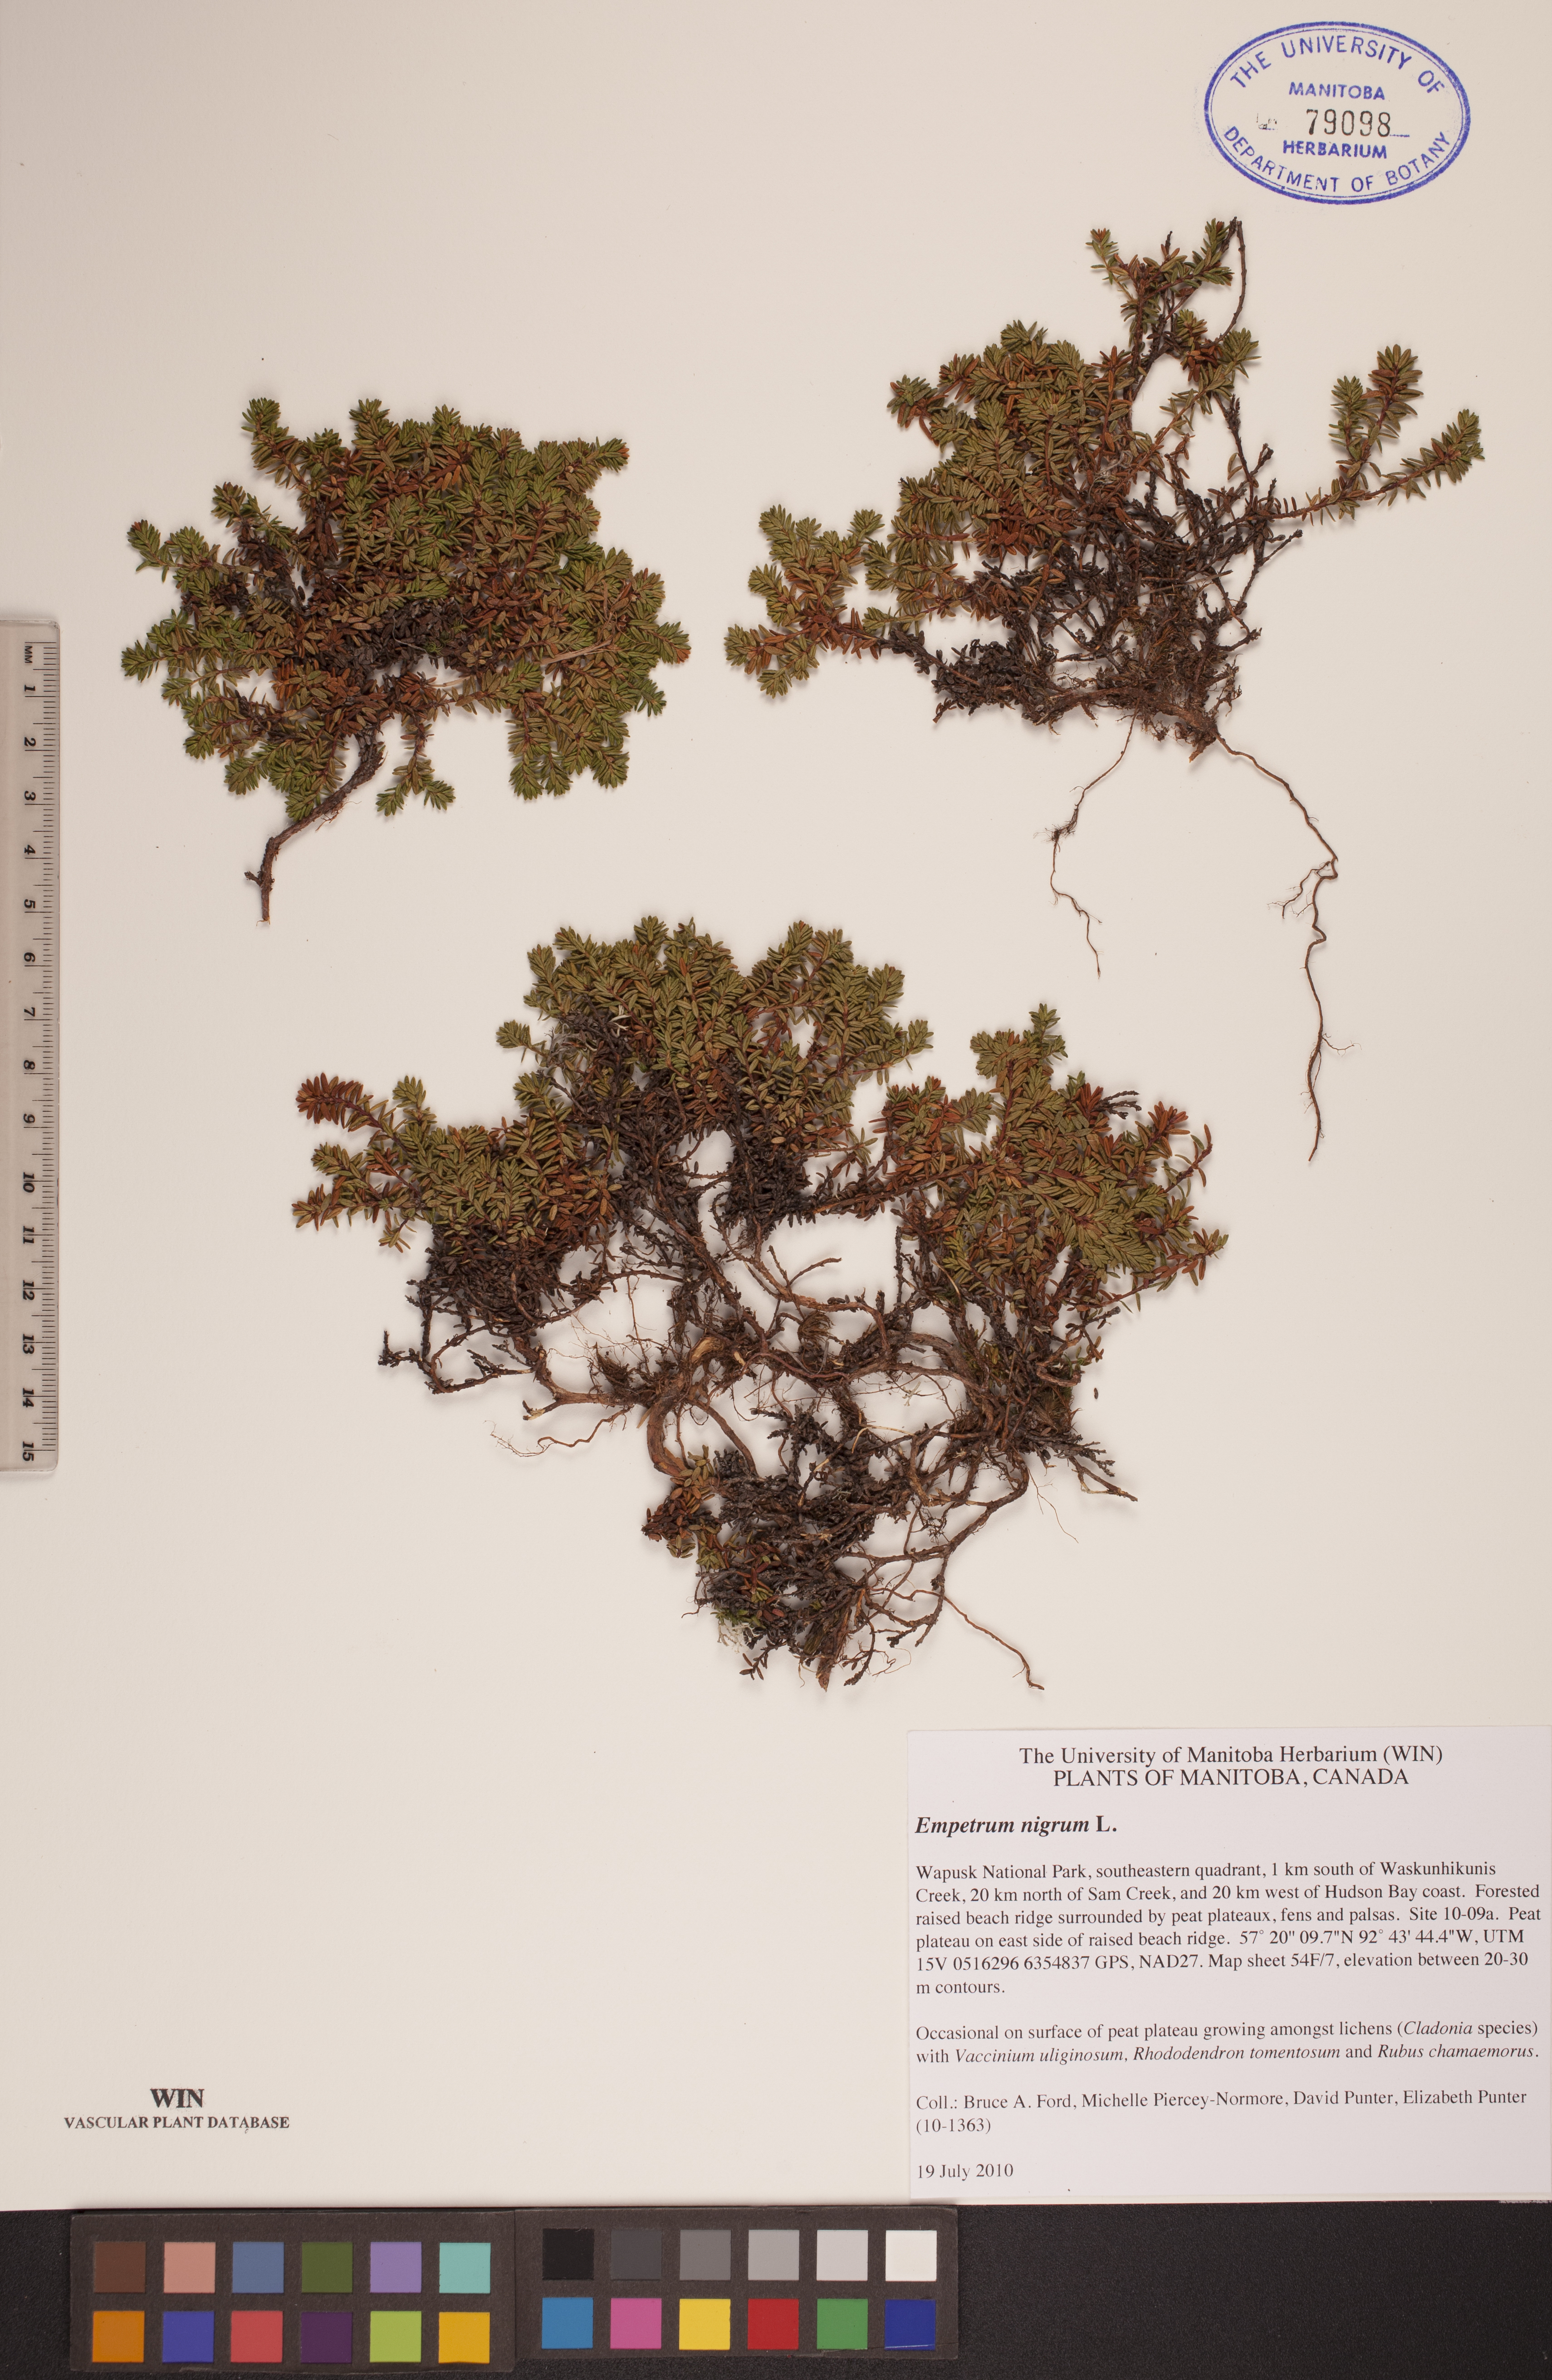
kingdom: Plantae
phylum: Tracheophyta
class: Magnoliopsida
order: Ericales
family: Ericaceae
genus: Empetrum
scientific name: Empetrum nigrum
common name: Black crowberry
